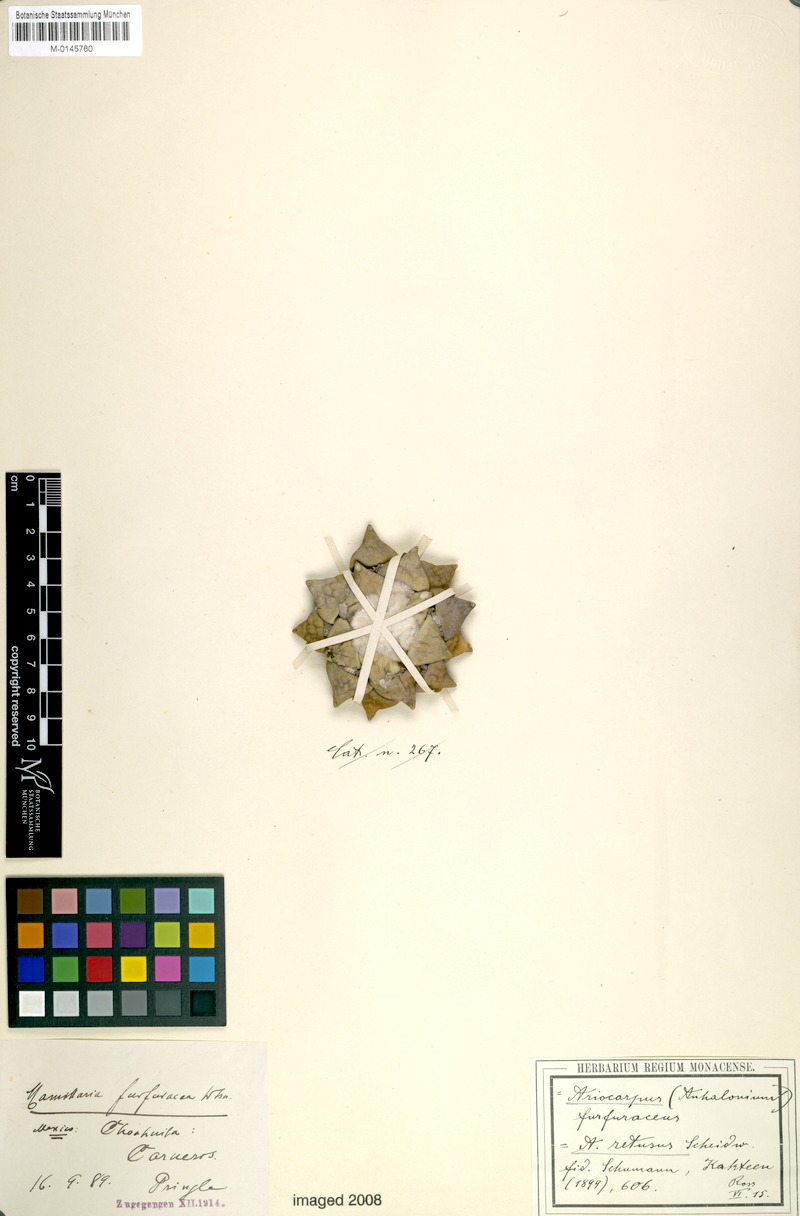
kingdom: Plantae
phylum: Tracheophyta
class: Magnoliopsida
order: Caryophyllales
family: Cactaceae
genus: Ariocarpus
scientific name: Ariocarpus retusus
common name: Seven stars
